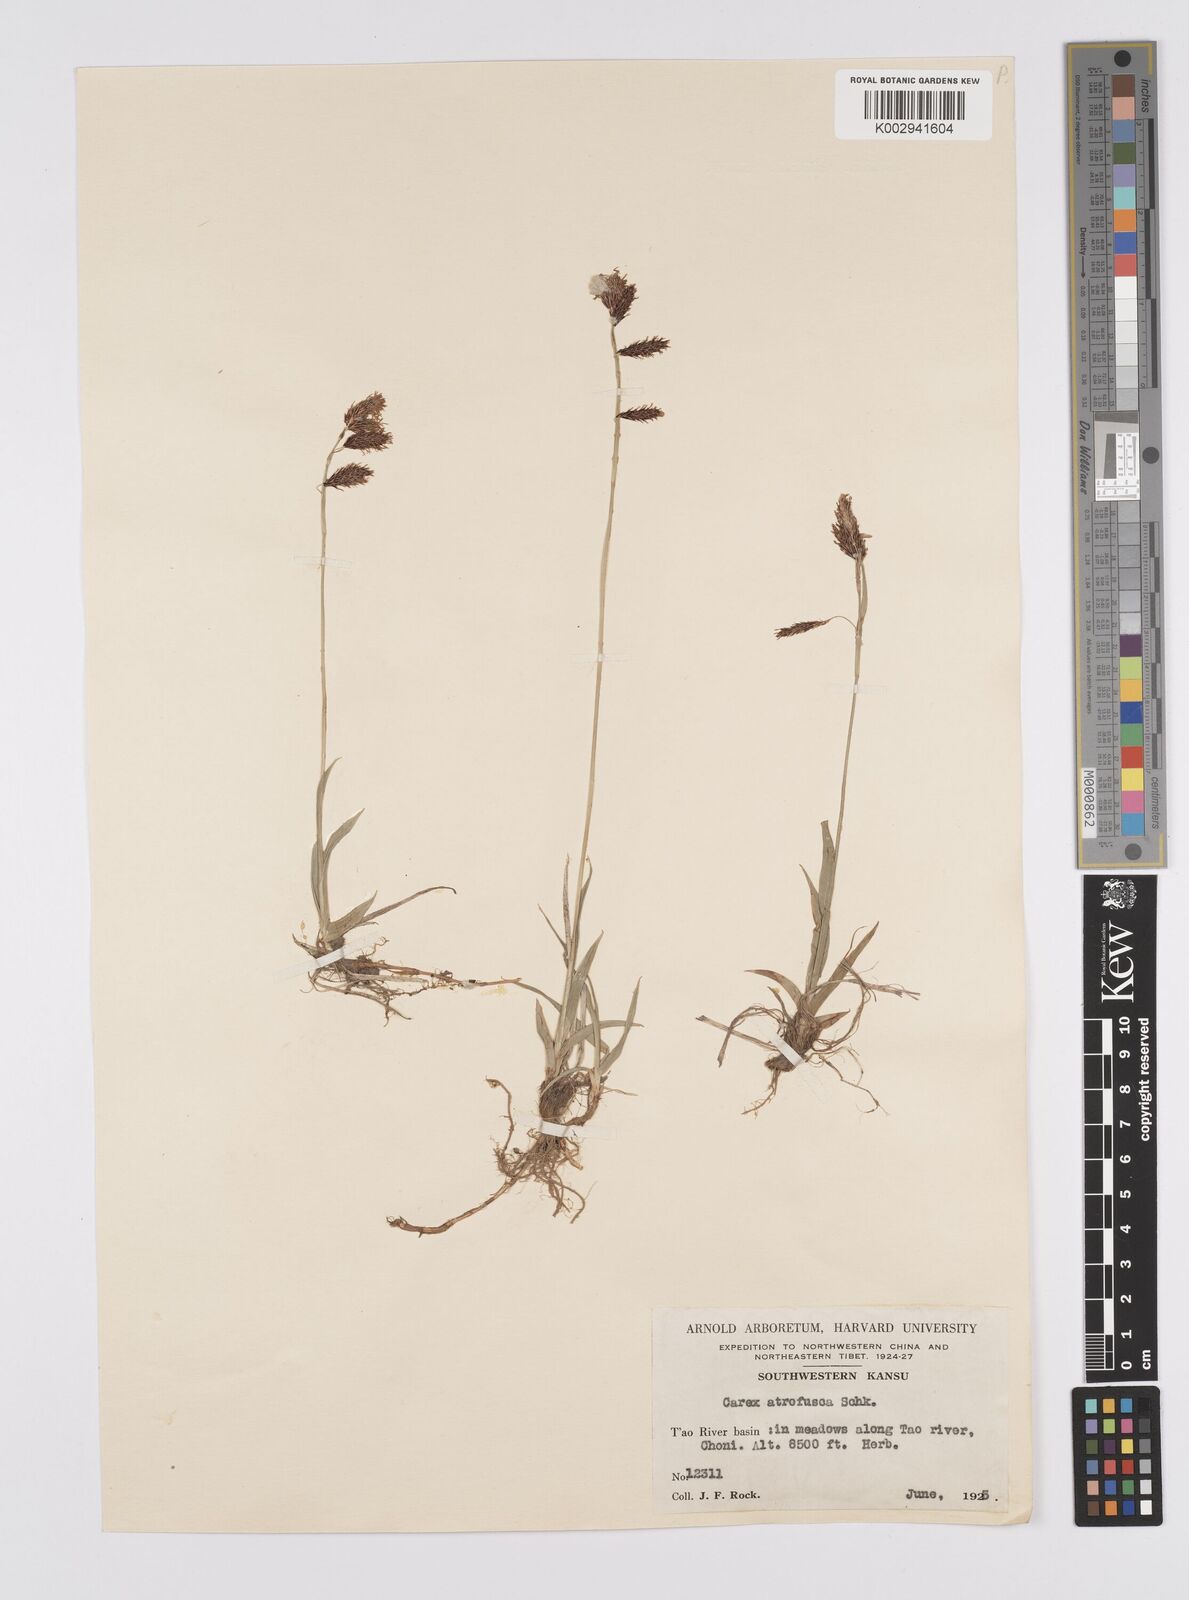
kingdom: Plantae
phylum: Tracheophyta
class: Liliopsida
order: Poales
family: Cyperaceae
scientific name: Cyperaceae
